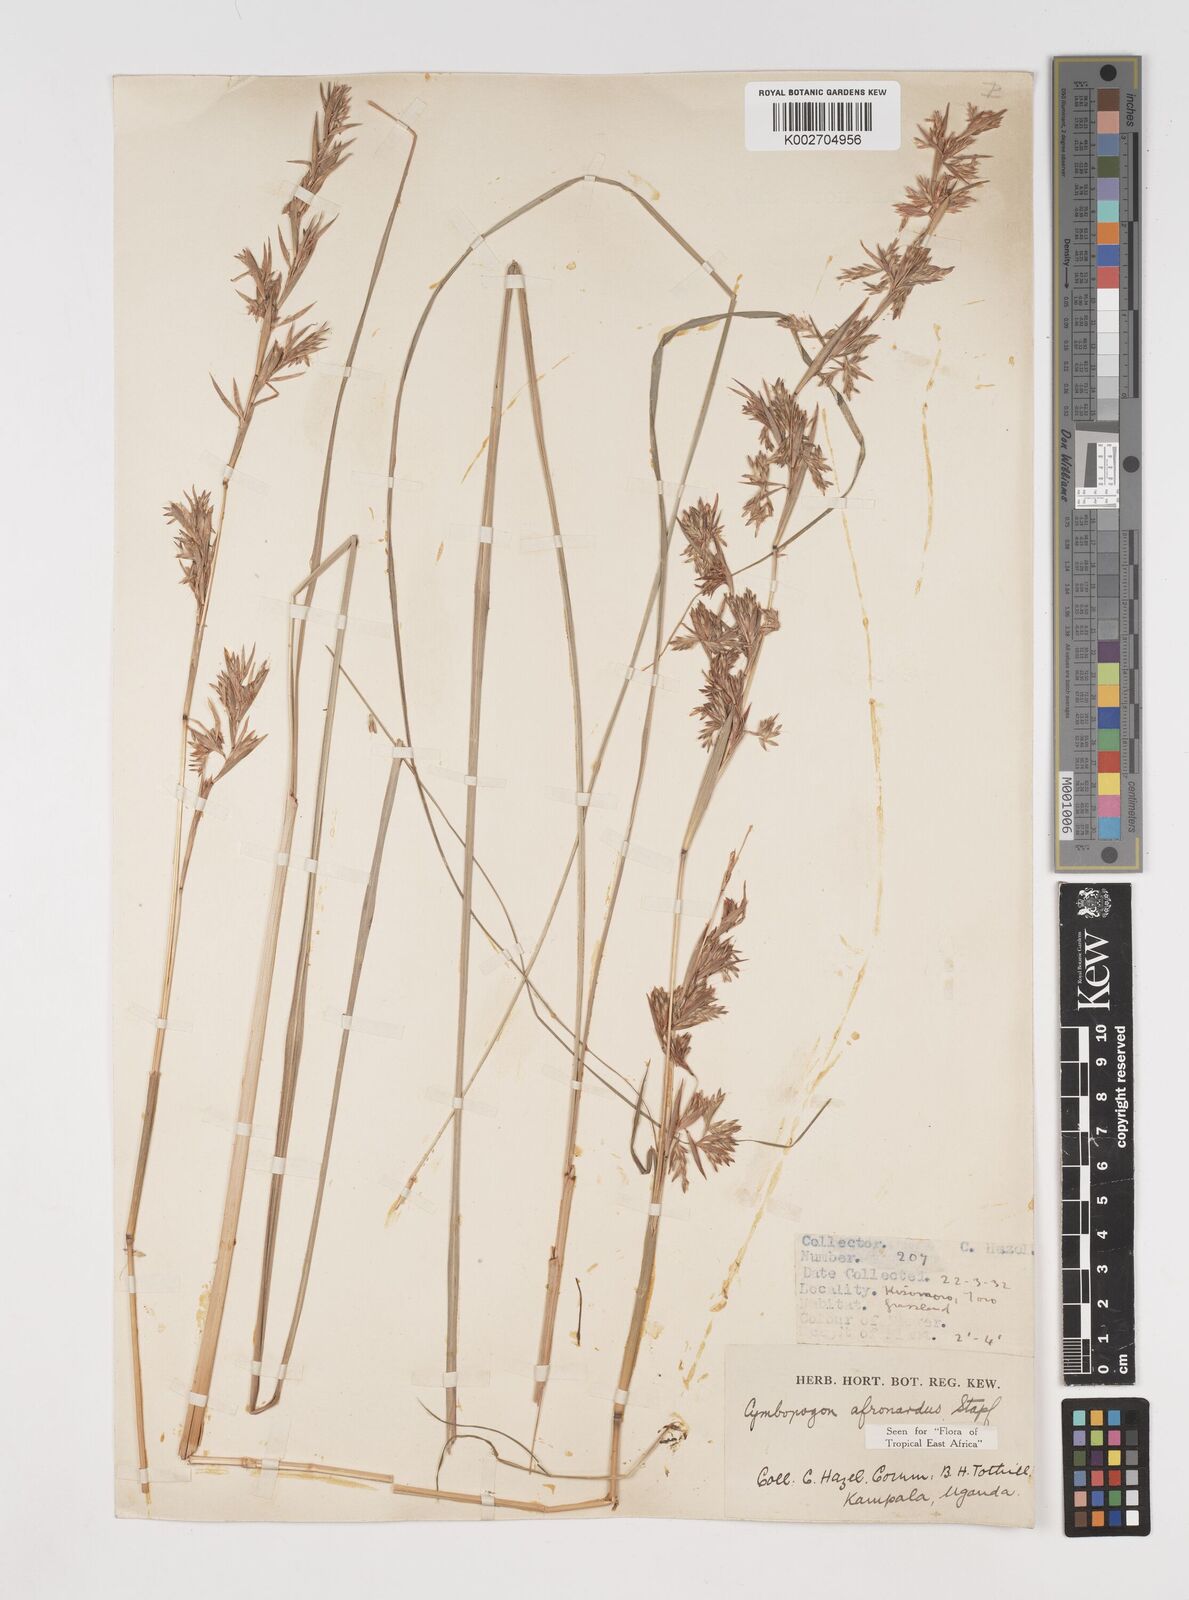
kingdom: Plantae
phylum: Tracheophyta
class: Liliopsida
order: Poales
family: Poaceae
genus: Cymbopogon
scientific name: Cymbopogon nardus
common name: Giant turpentine grass
